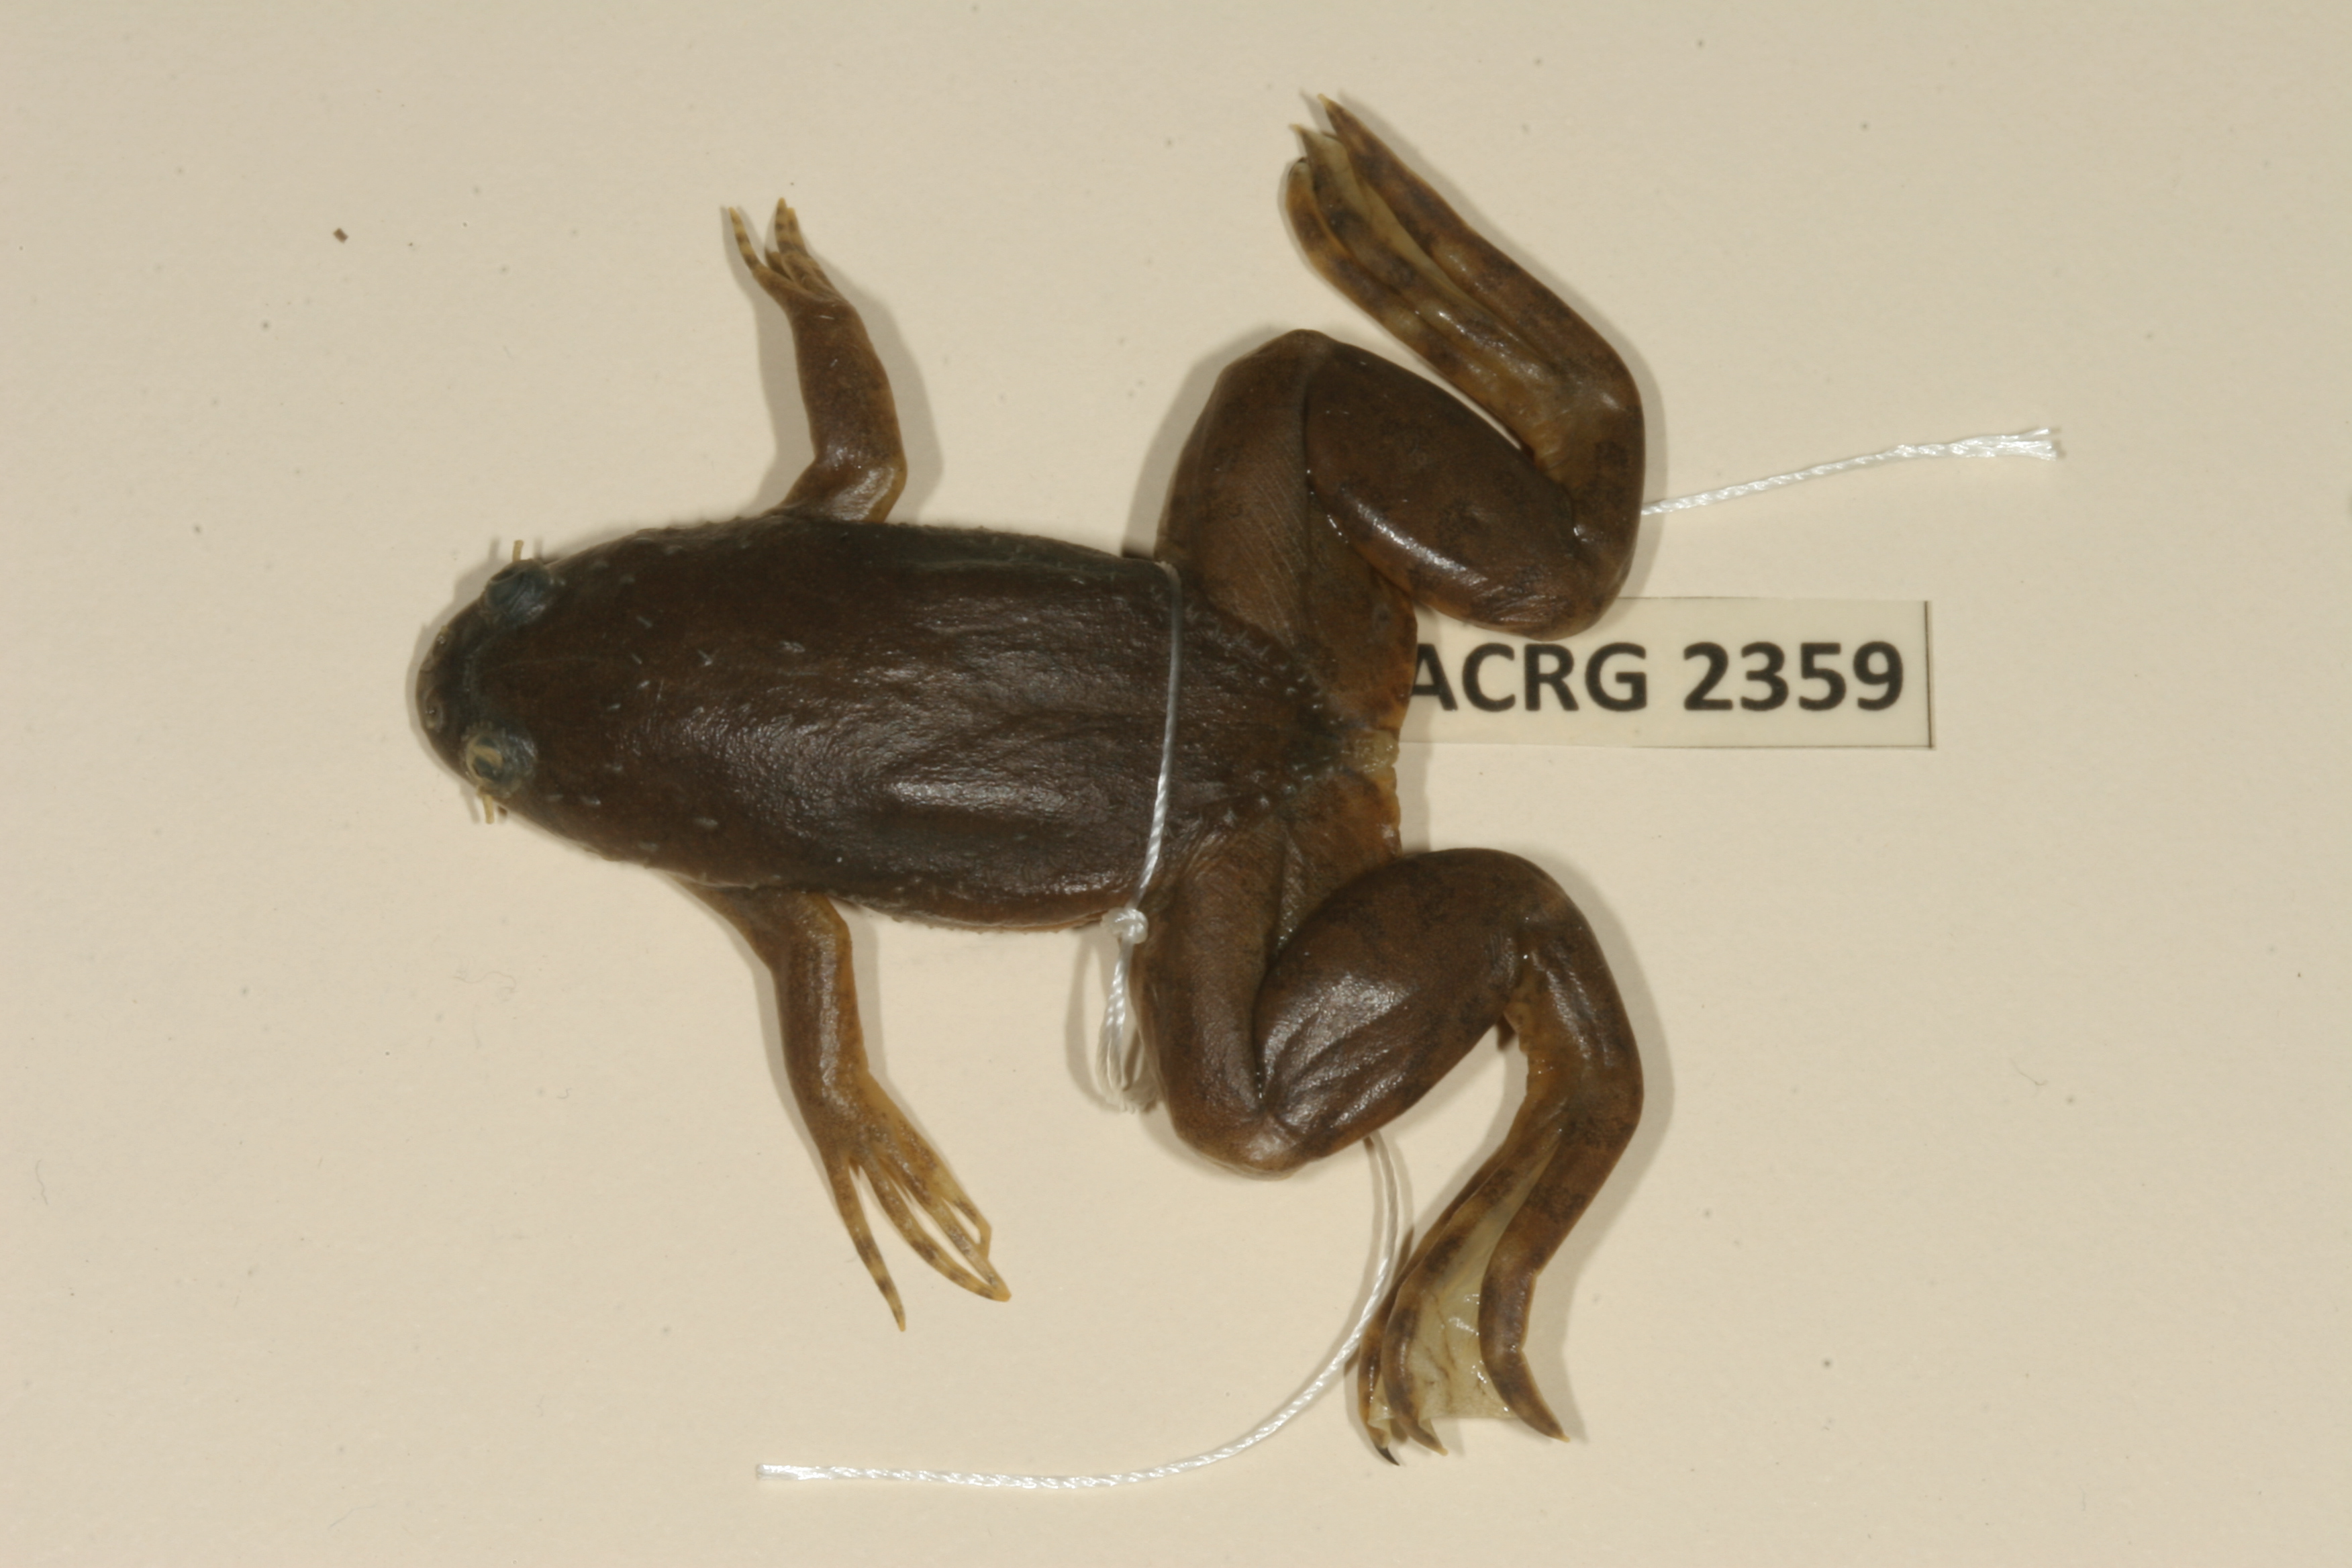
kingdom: Animalia
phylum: Chordata
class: Amphibia
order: Anura
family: Pipidae
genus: Xenopus
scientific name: Xenopus muelleri
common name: Muller's clawed frog
